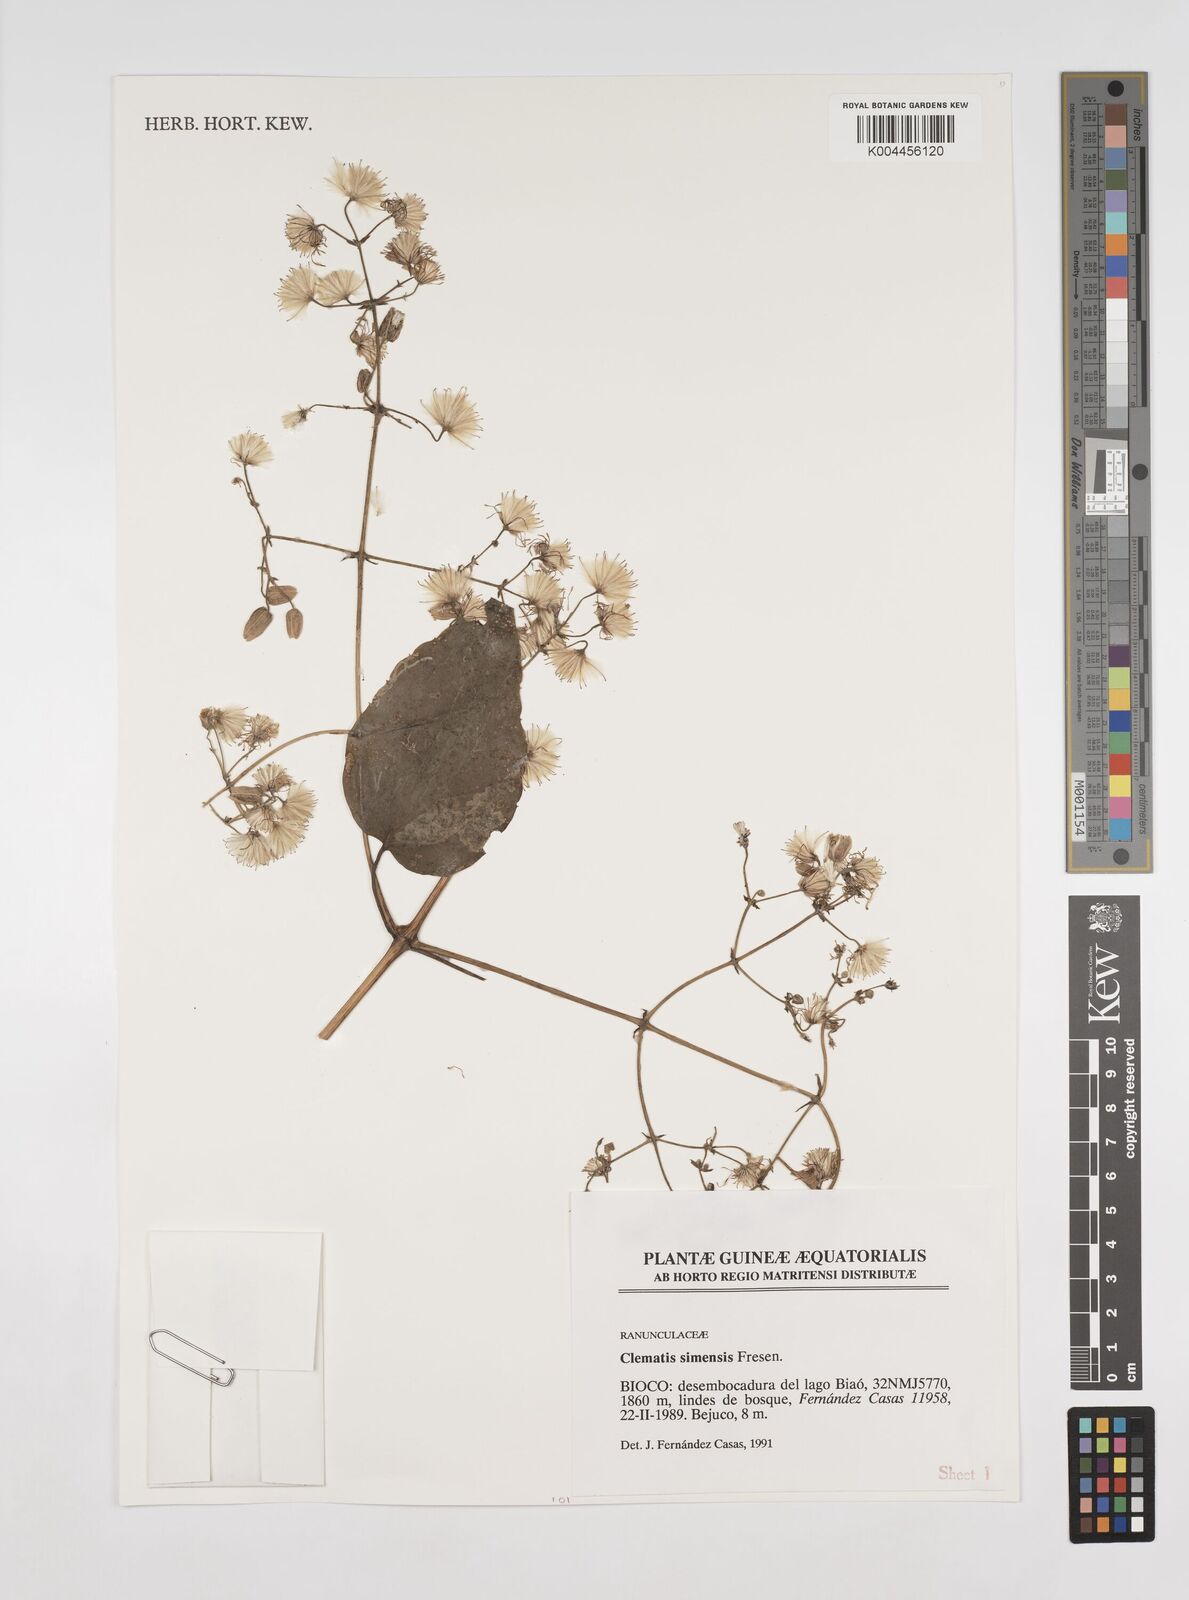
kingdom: Plantae
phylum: Tracheophyta
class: Magnoliopsida
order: Ranunculales
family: Ranunculaceae
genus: Clematis
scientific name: Clematis simensis
